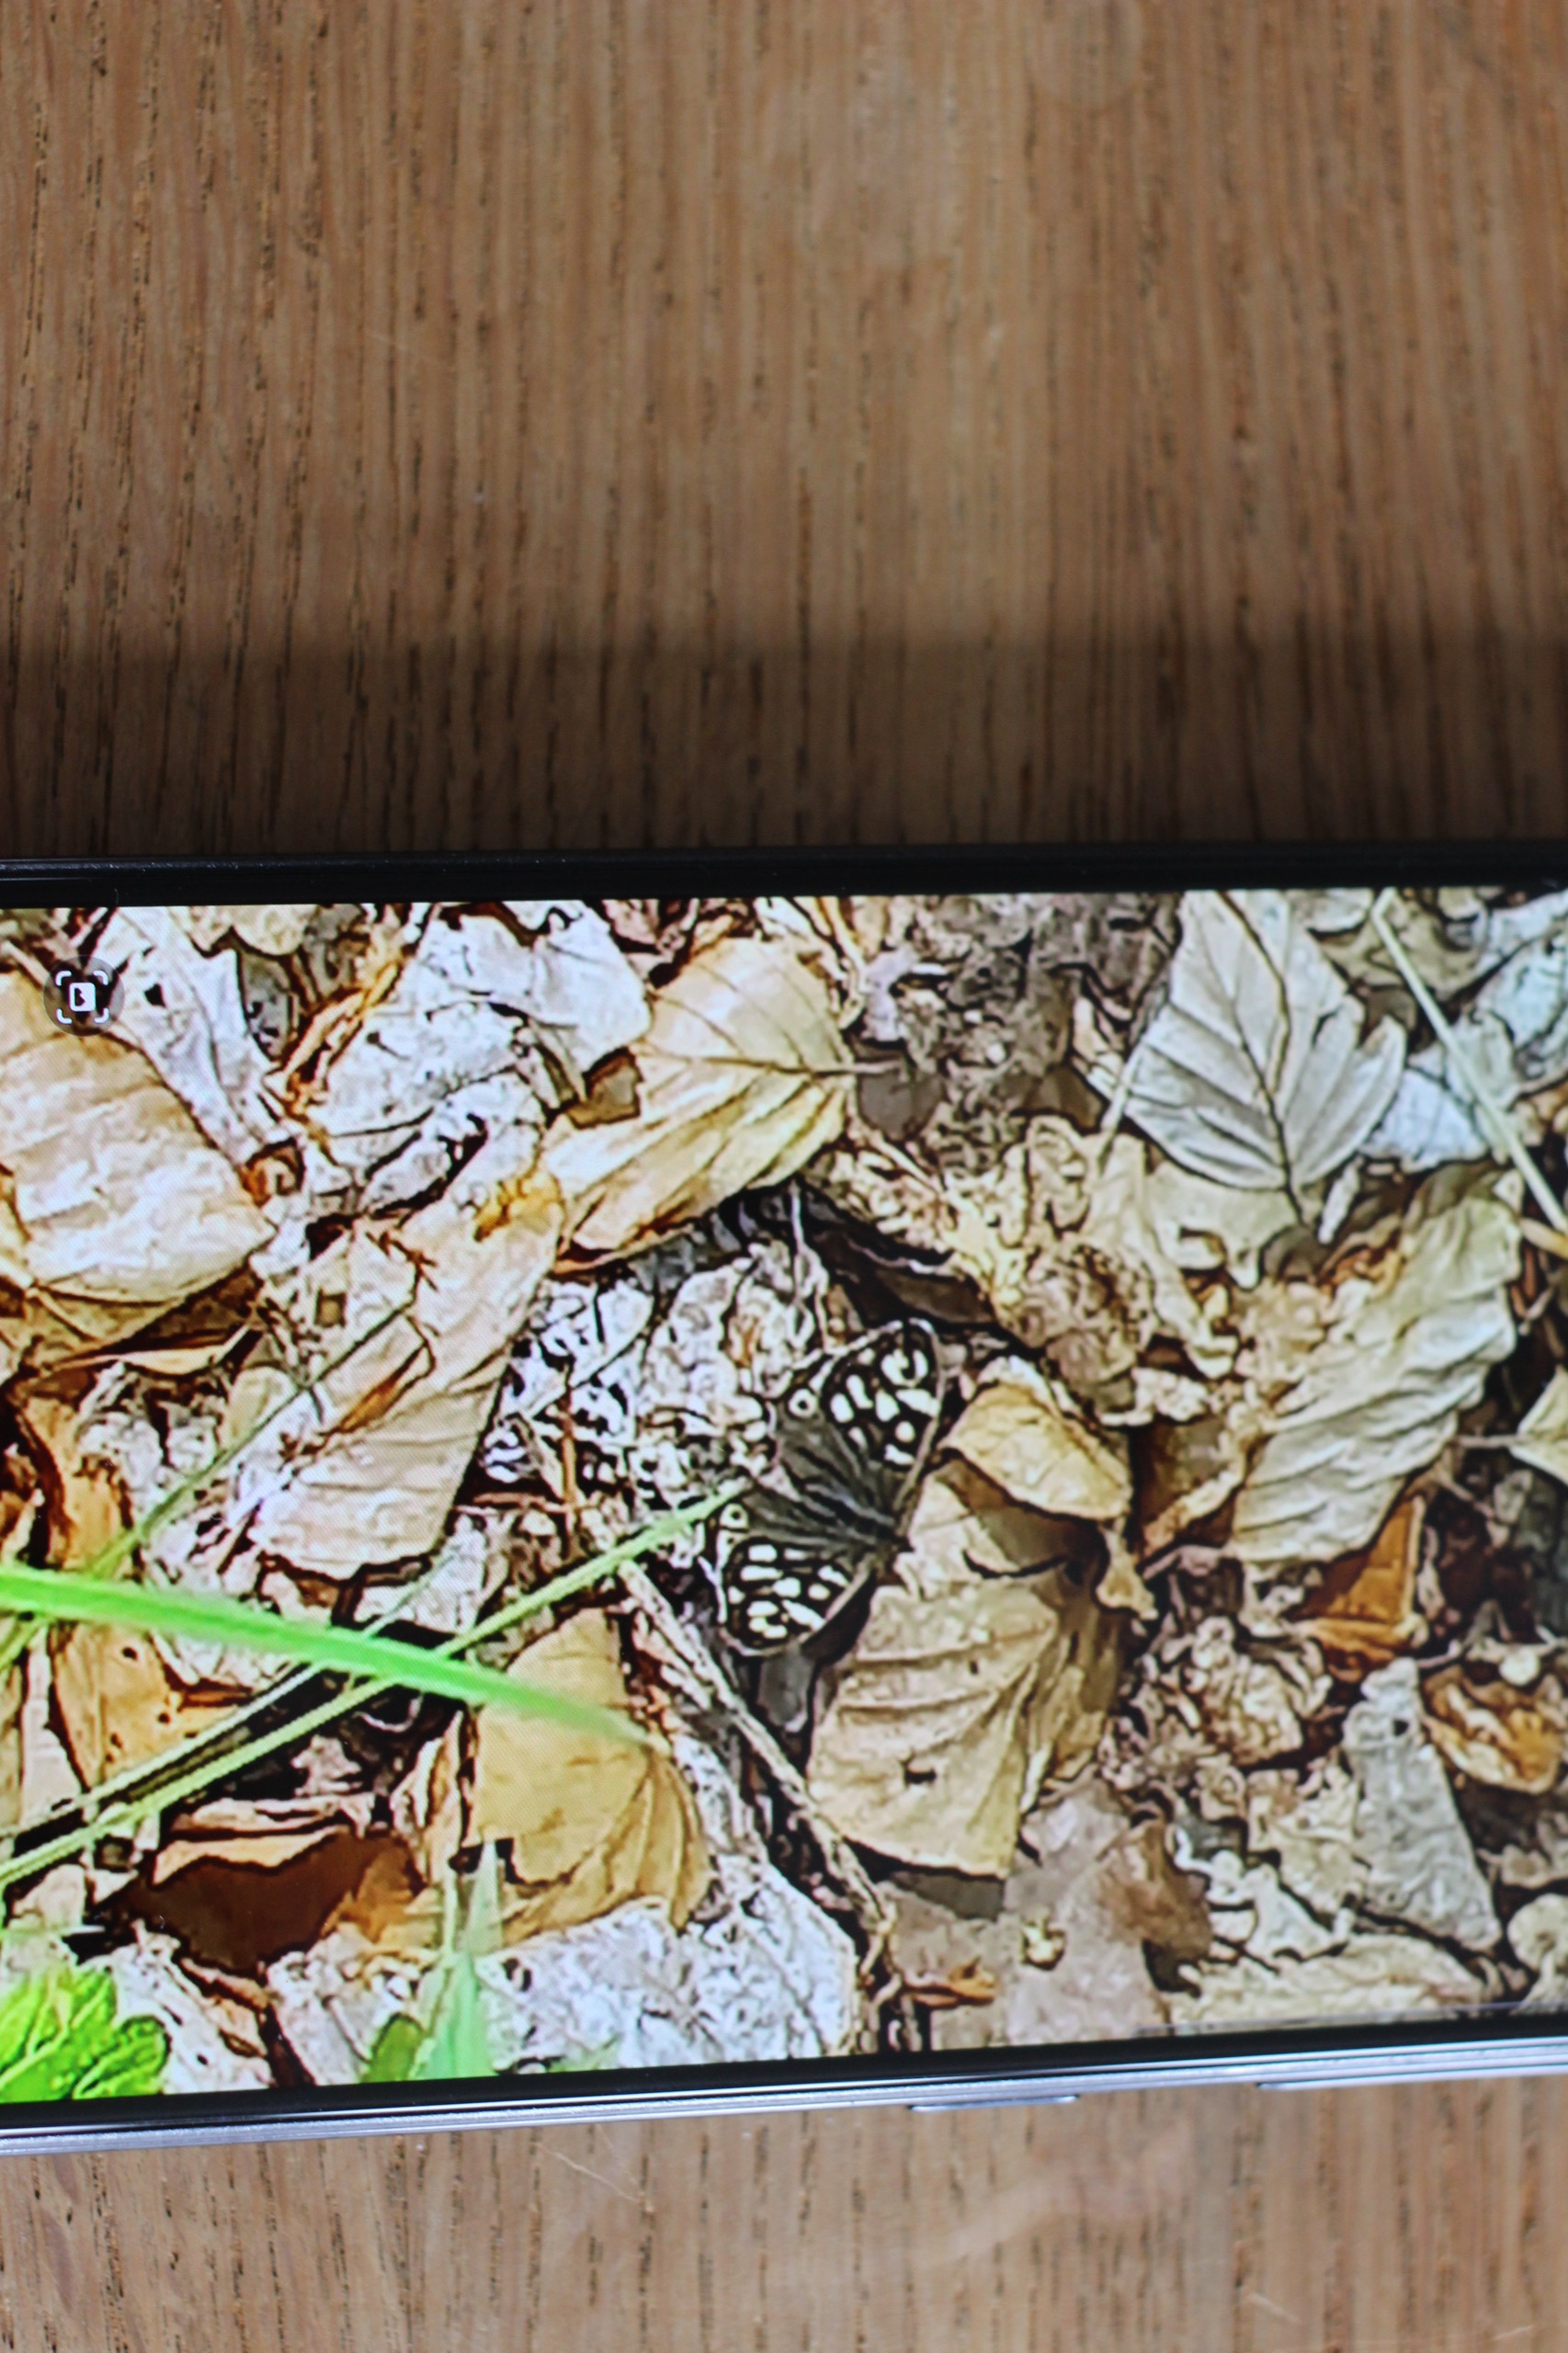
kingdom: Animalia
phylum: Arthropoda
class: Insecta
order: Lepidoptera
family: Nymphalidae
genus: Pararge
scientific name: Pararge aegeria
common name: Skovrandøje
